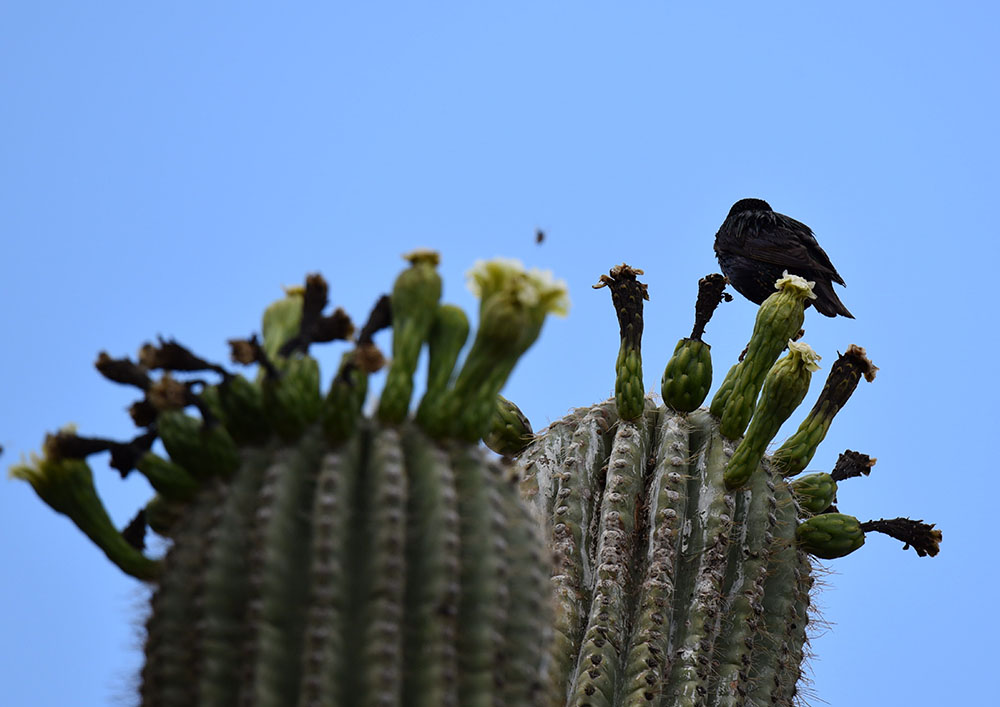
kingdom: Animalia
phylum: Chordata
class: Aves
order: Passeriformes
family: Sturnidae
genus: Sturnus
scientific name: Sturnus vulgaris
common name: Common starling
